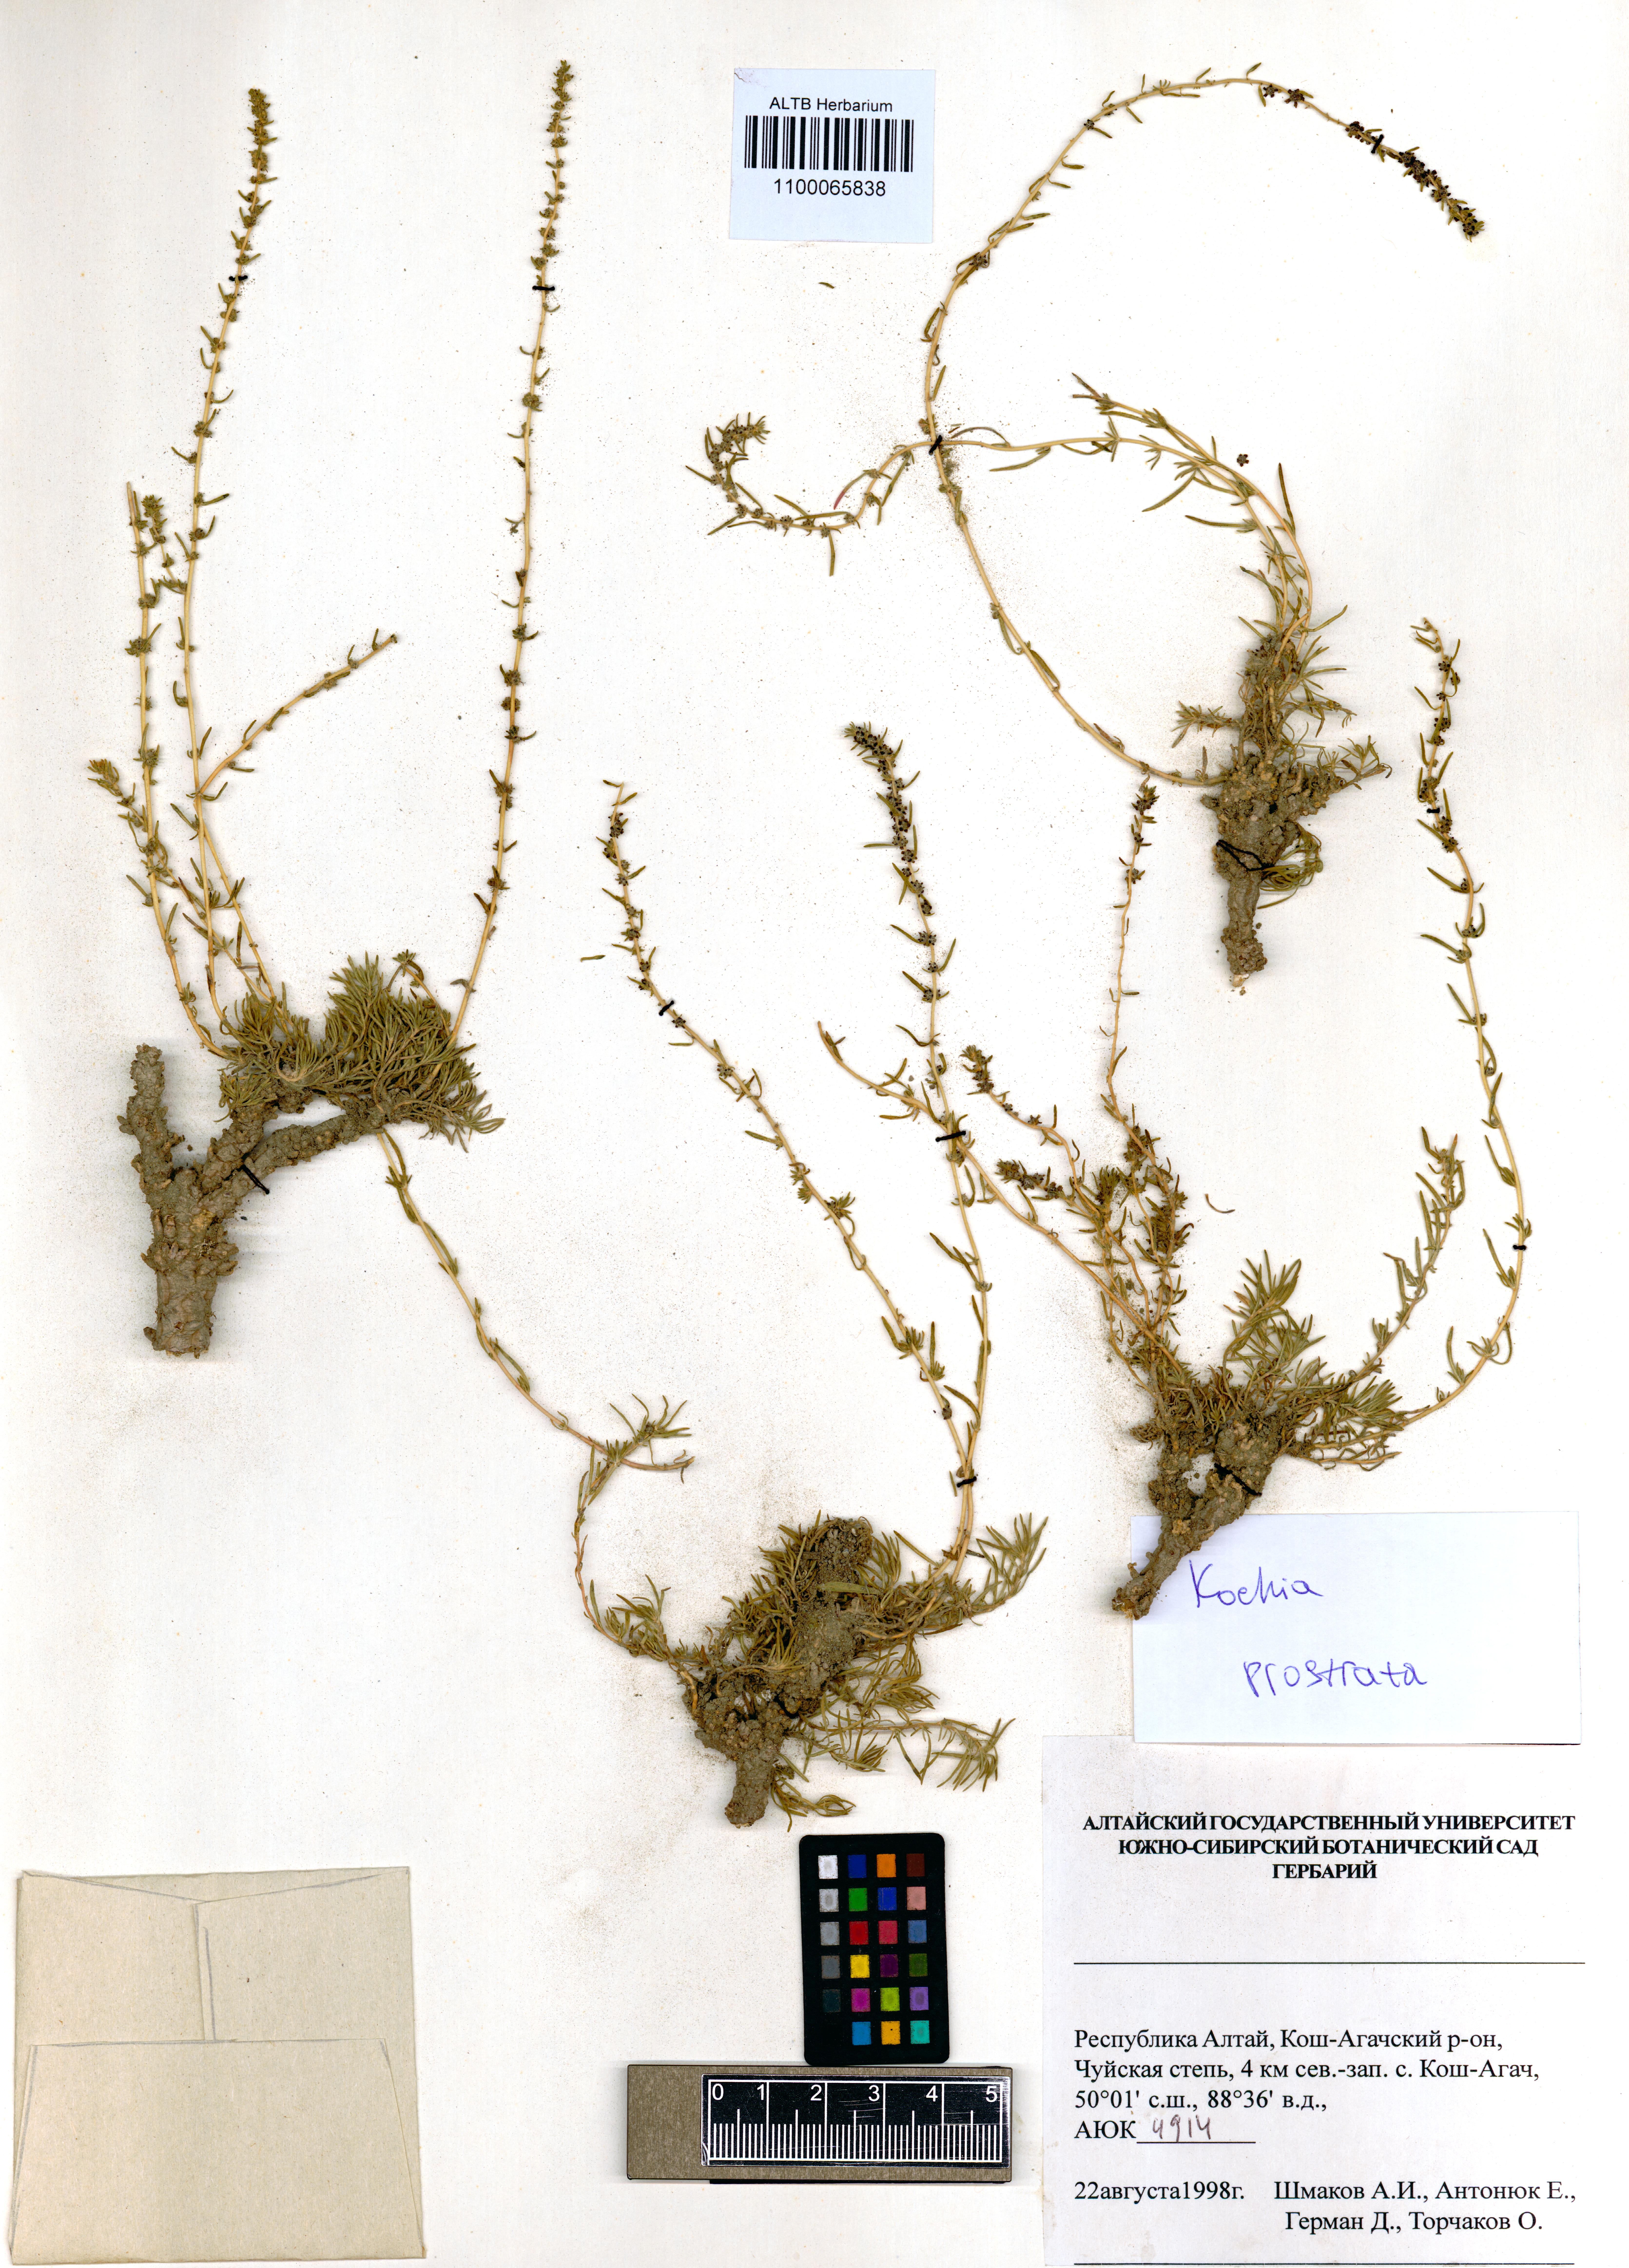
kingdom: Plantae
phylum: Tracheophyta
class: Magnoliopsida
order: Caryophyllales
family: Amaranthaceae
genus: Bassia
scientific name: Bassia prostrata
